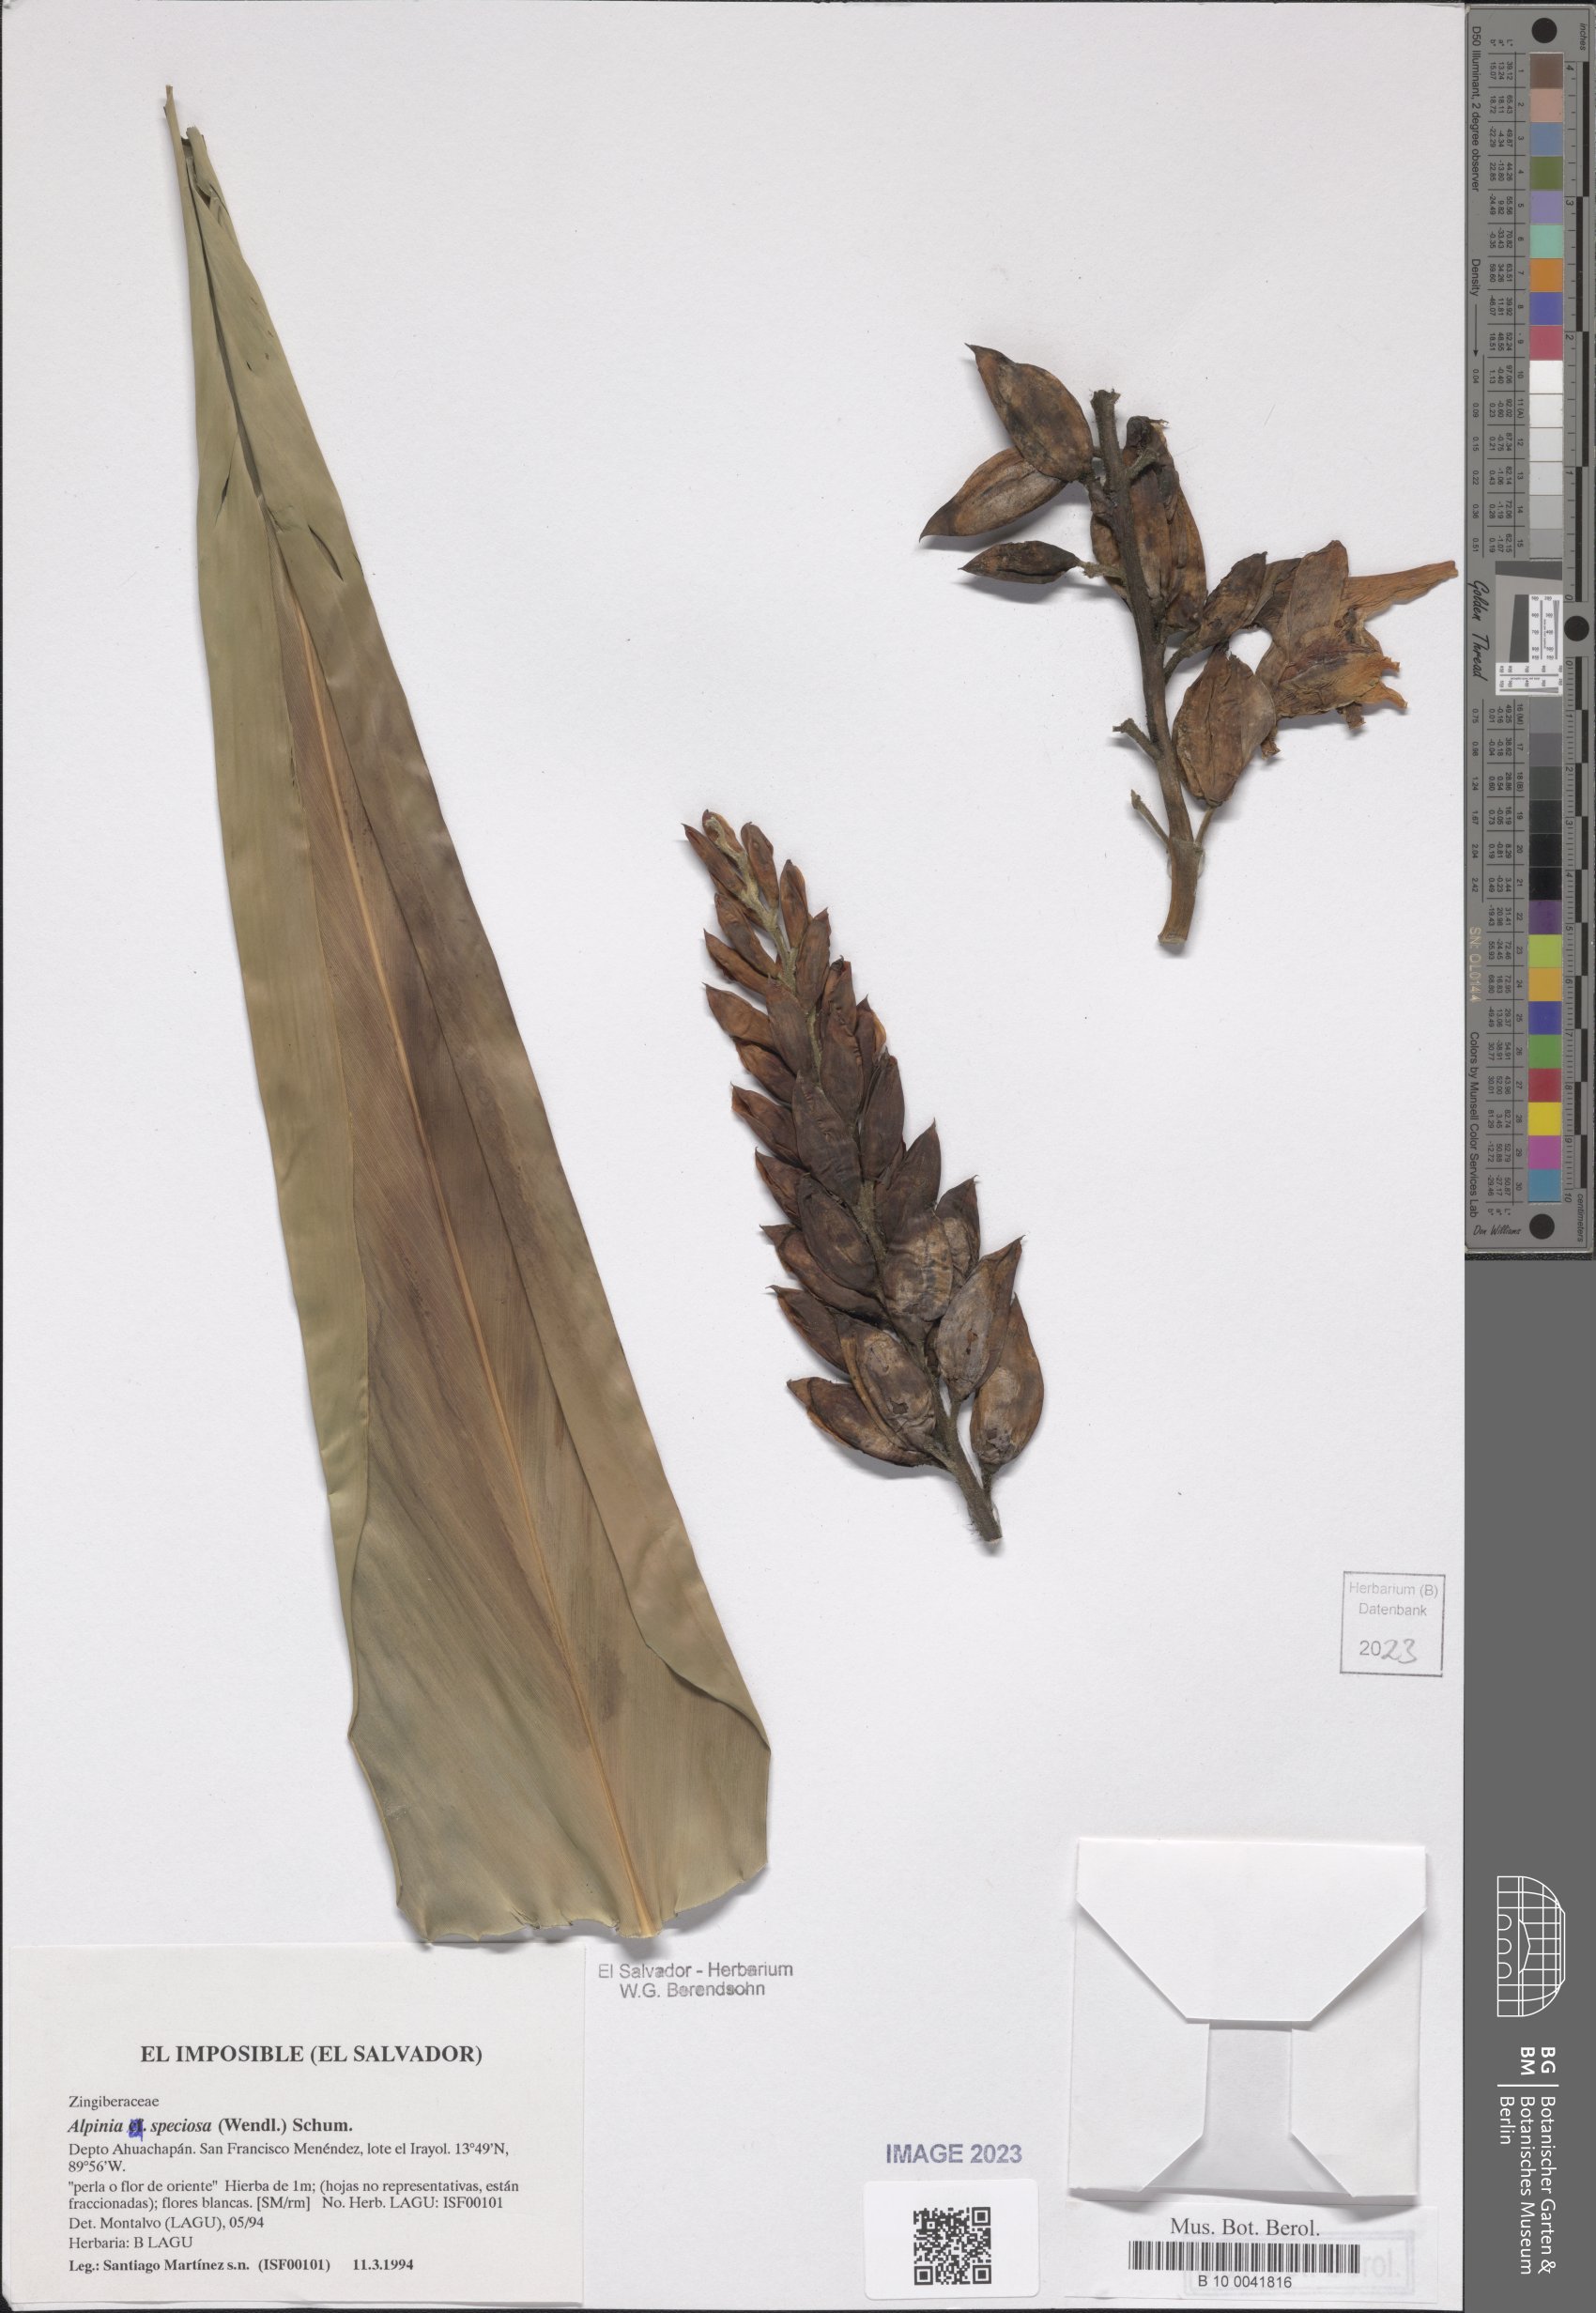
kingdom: Plantae
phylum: Tracheophyta
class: Liliopsida
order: Zingiberales
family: Zingiberaceae
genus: Alpinia
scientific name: Alpinia zerumbet
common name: Shellplant
